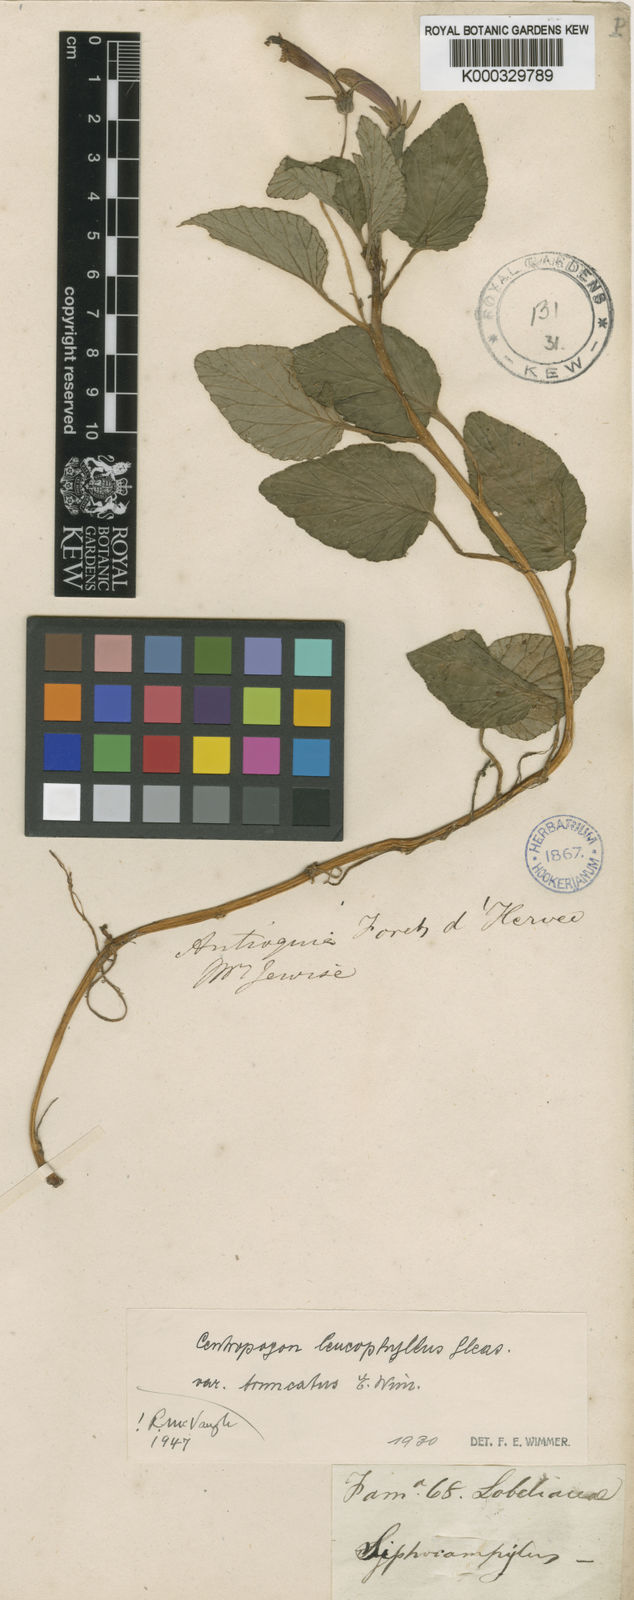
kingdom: Plantae
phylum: Tracheophyta
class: Magnoliopsida
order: Asterales
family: Campanulaceae
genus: Centropogon
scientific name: Centropogon leucophyllus
